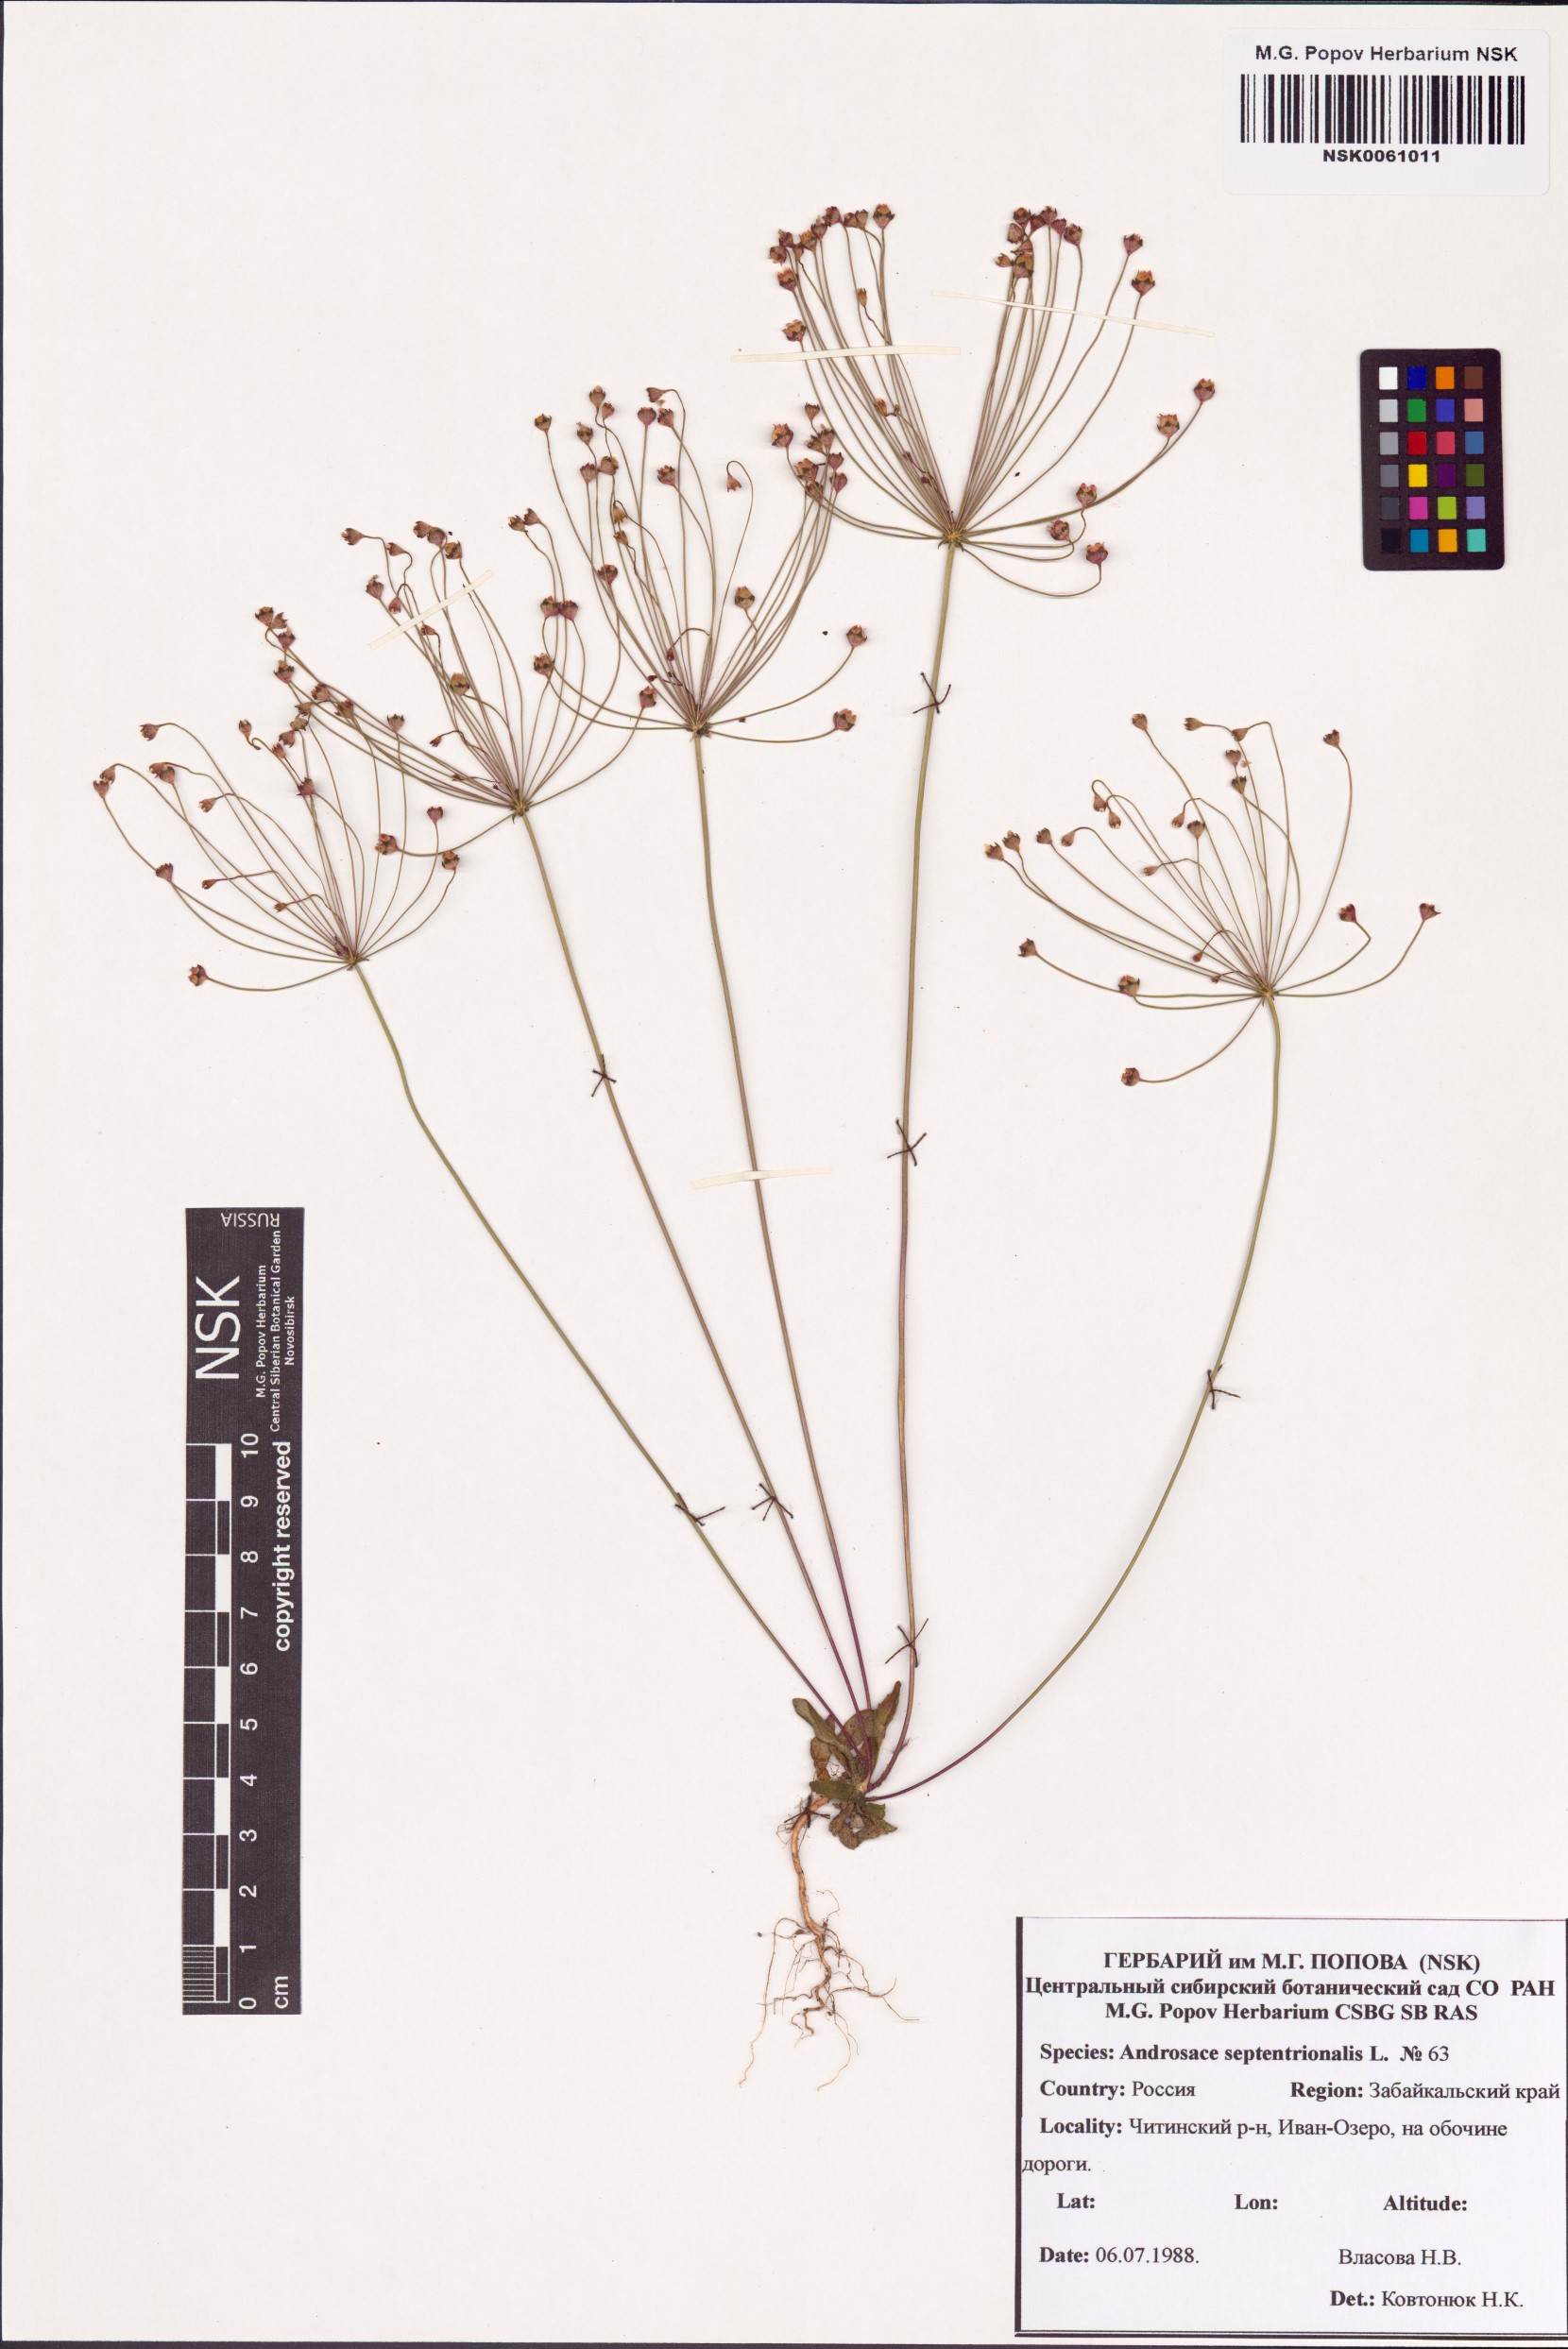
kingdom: Plantae
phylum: Tracheophyta
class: Magnoliopsida
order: Ericales
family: Primulaceae
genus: Androsace
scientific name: Androsace septentrionalis
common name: Hairy northern fairy-candelabra
